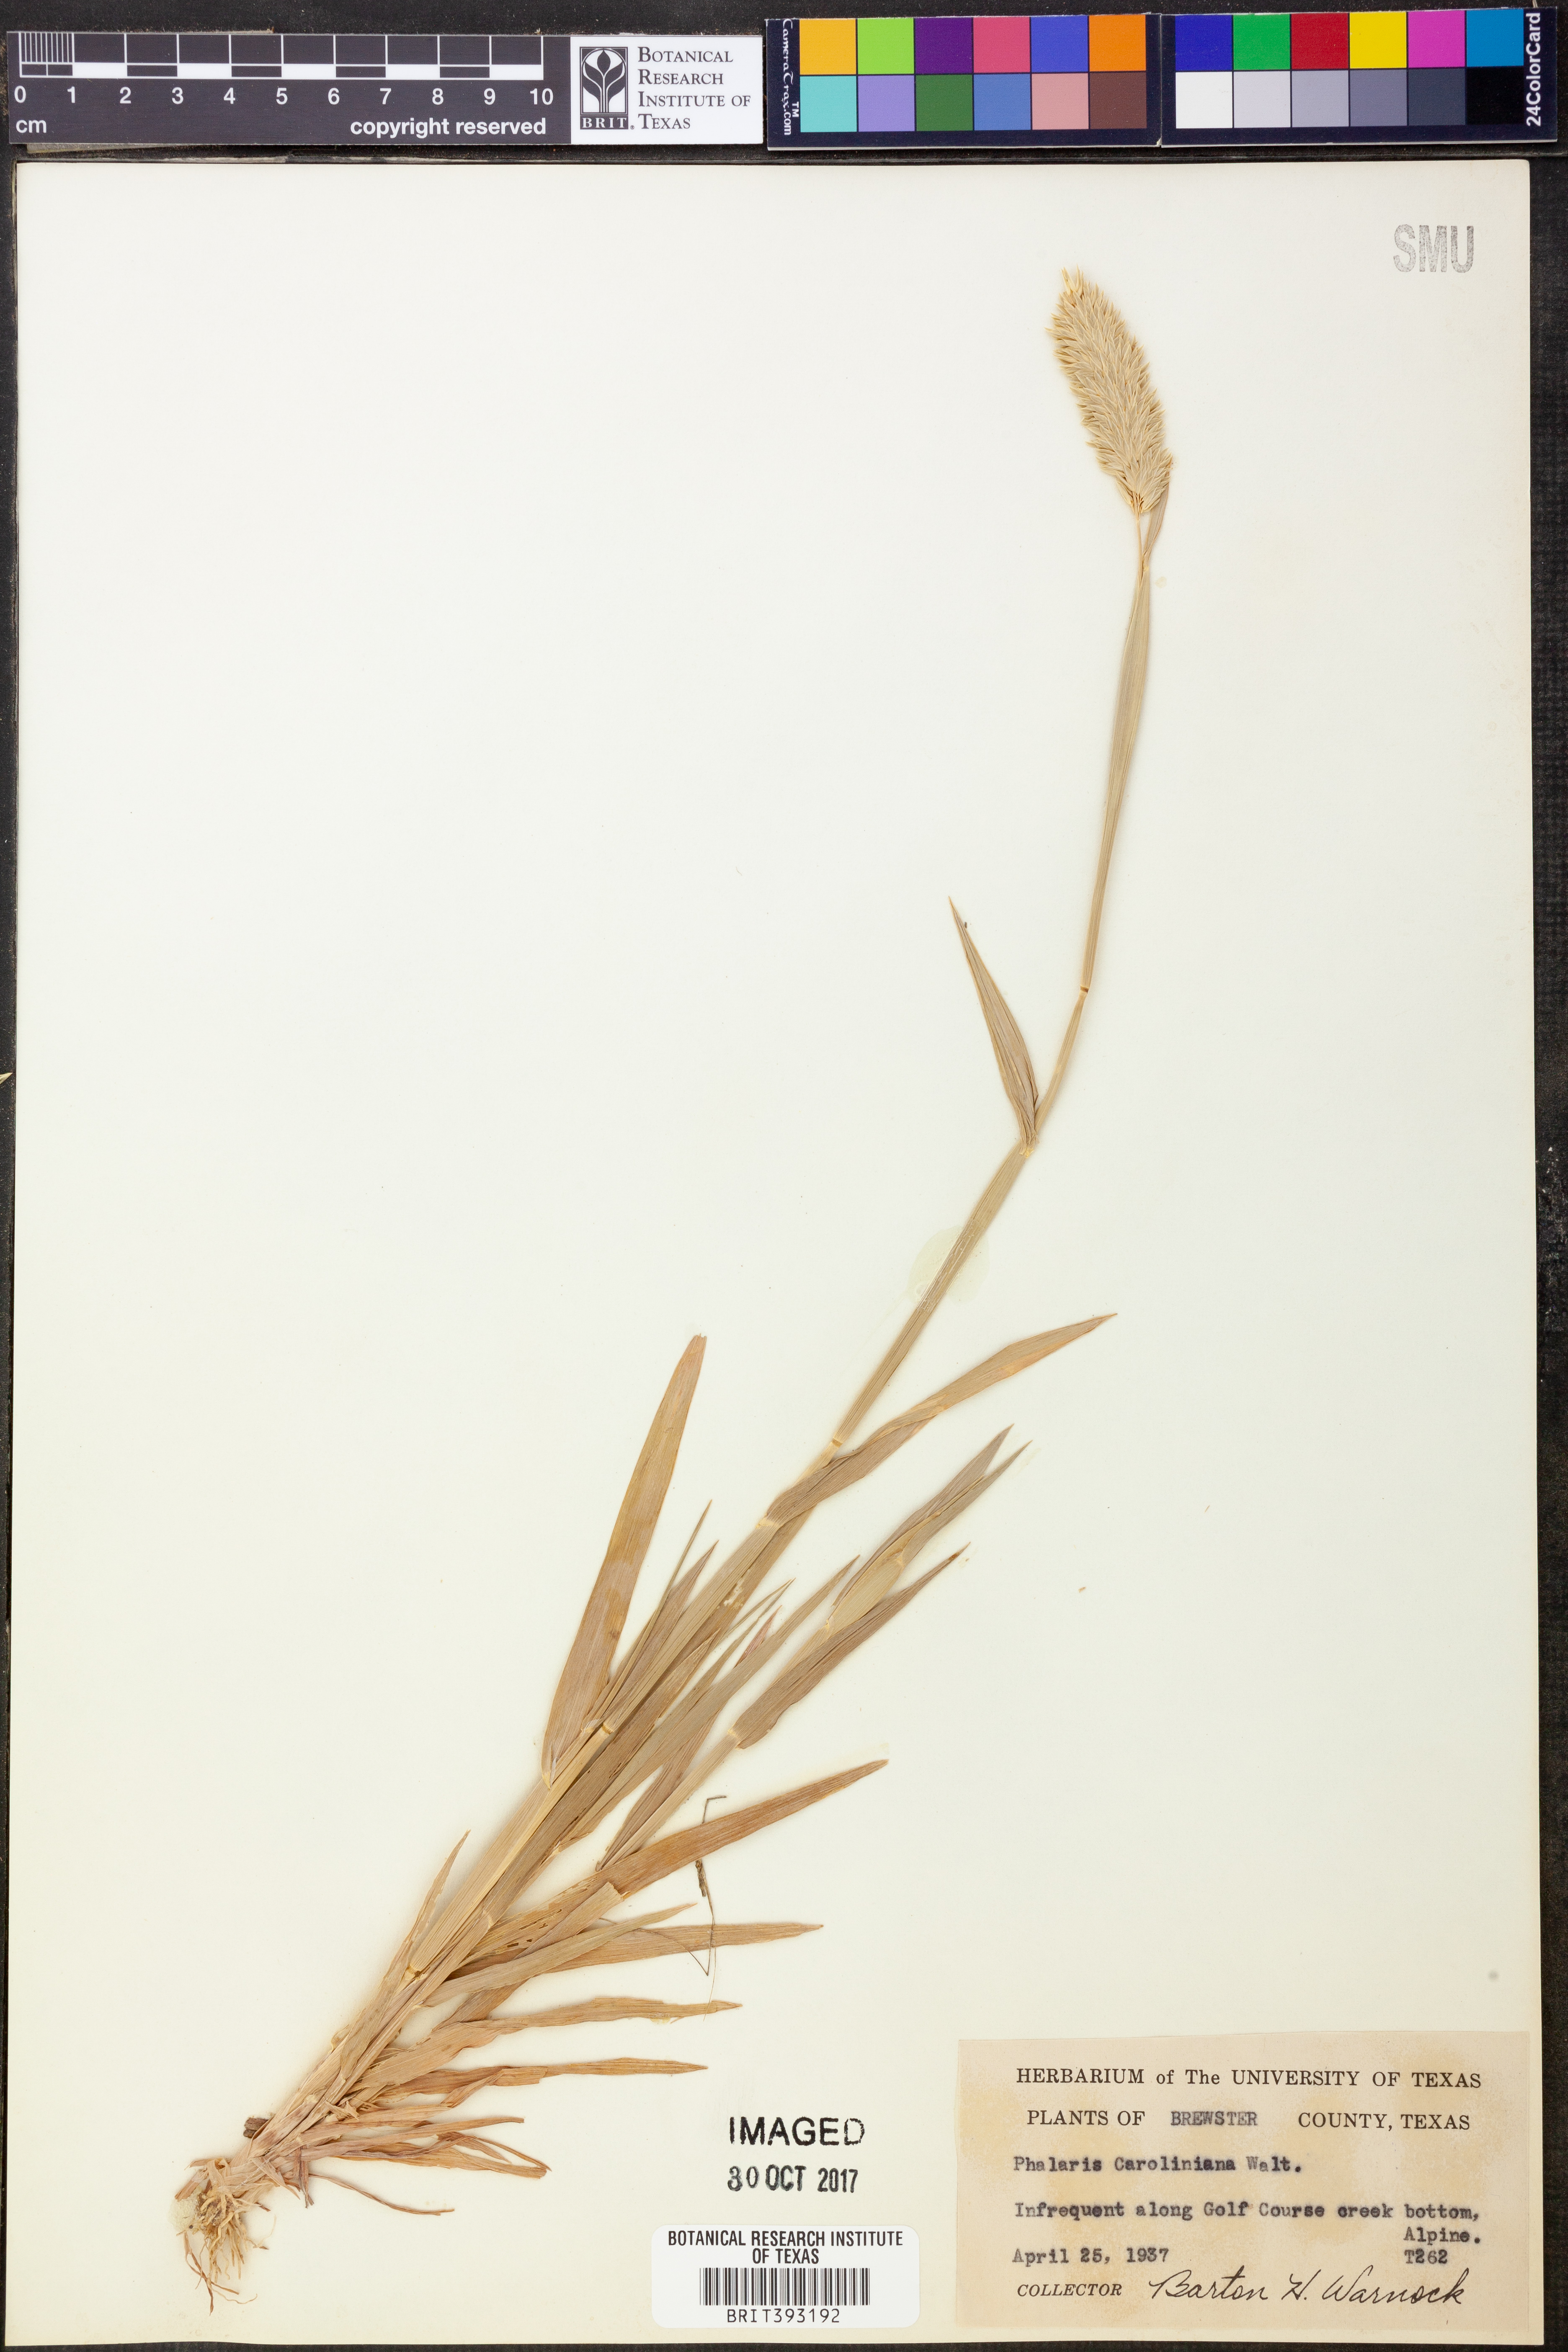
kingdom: Plantae
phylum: Tracheophyta
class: Liliopsida
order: Poales
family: Poaceae
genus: Phalaris
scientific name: Phalaris caroliniana
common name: May grass
